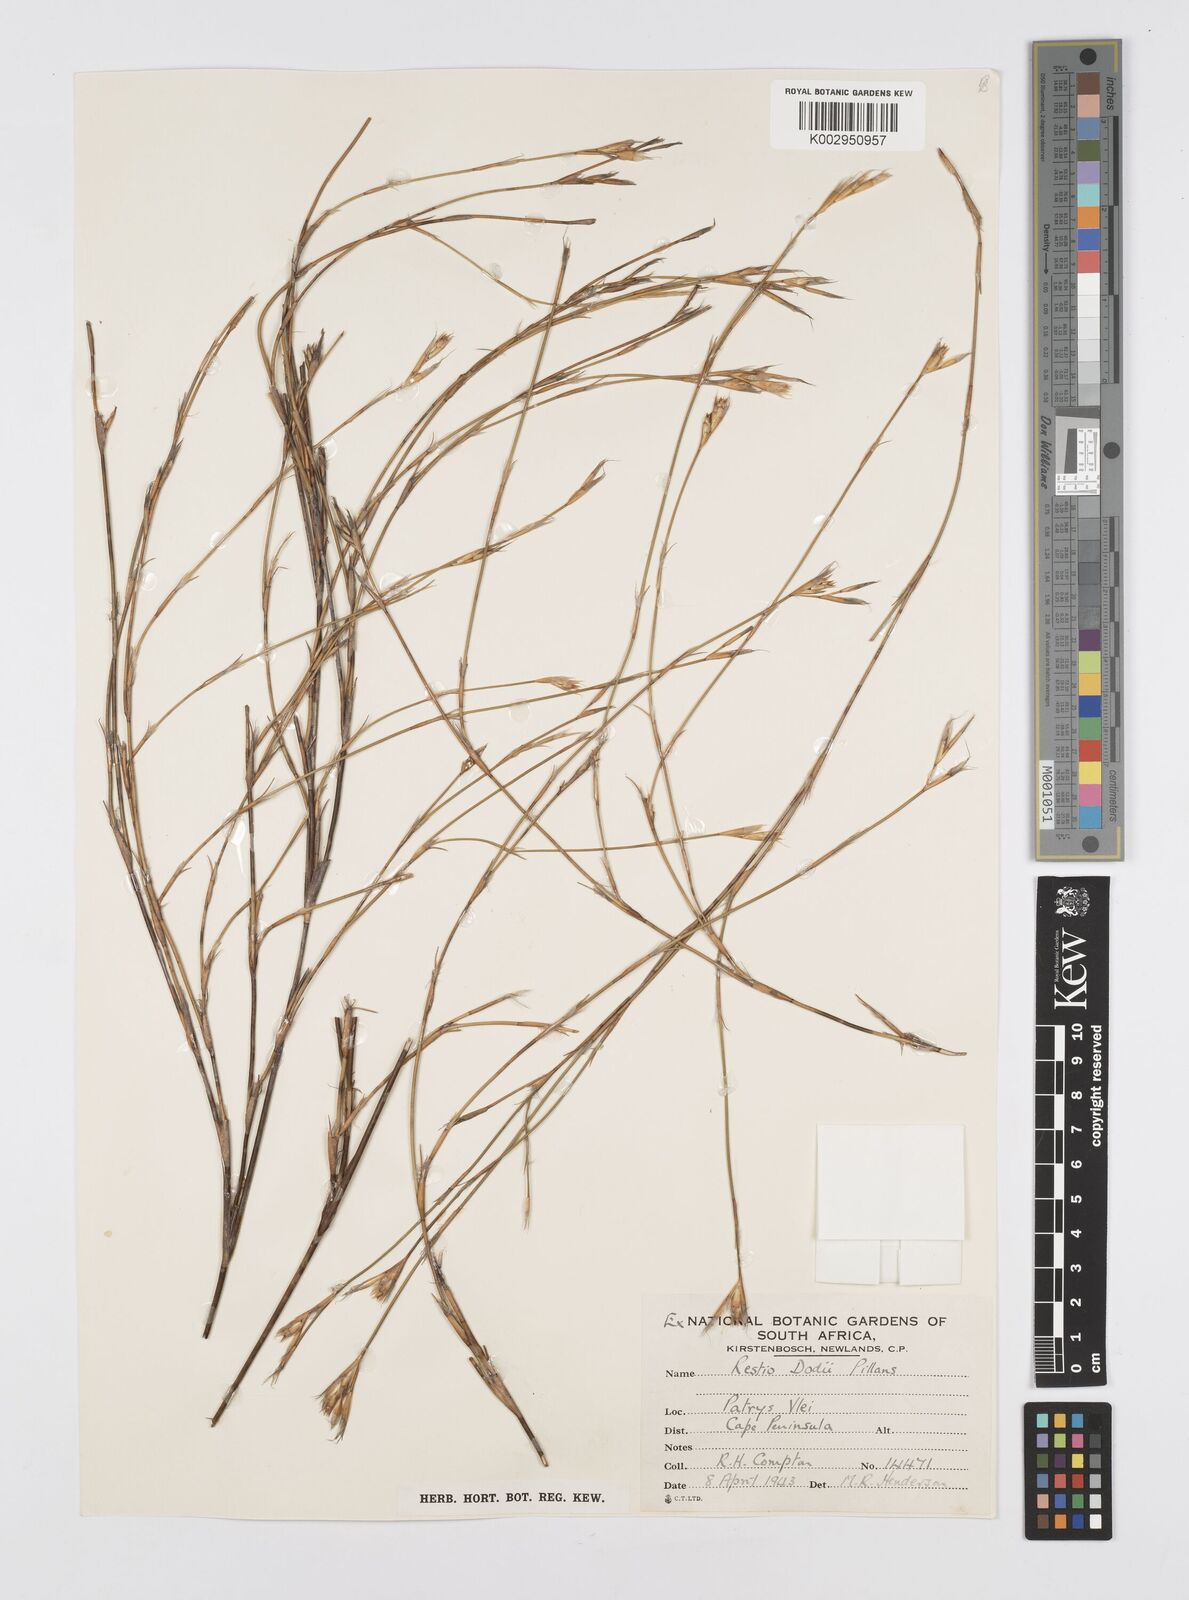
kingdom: Plantae
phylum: Tracheophyta
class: Liliopsida
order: Poales
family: Restionaceae
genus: Restio
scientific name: Restio dodii
